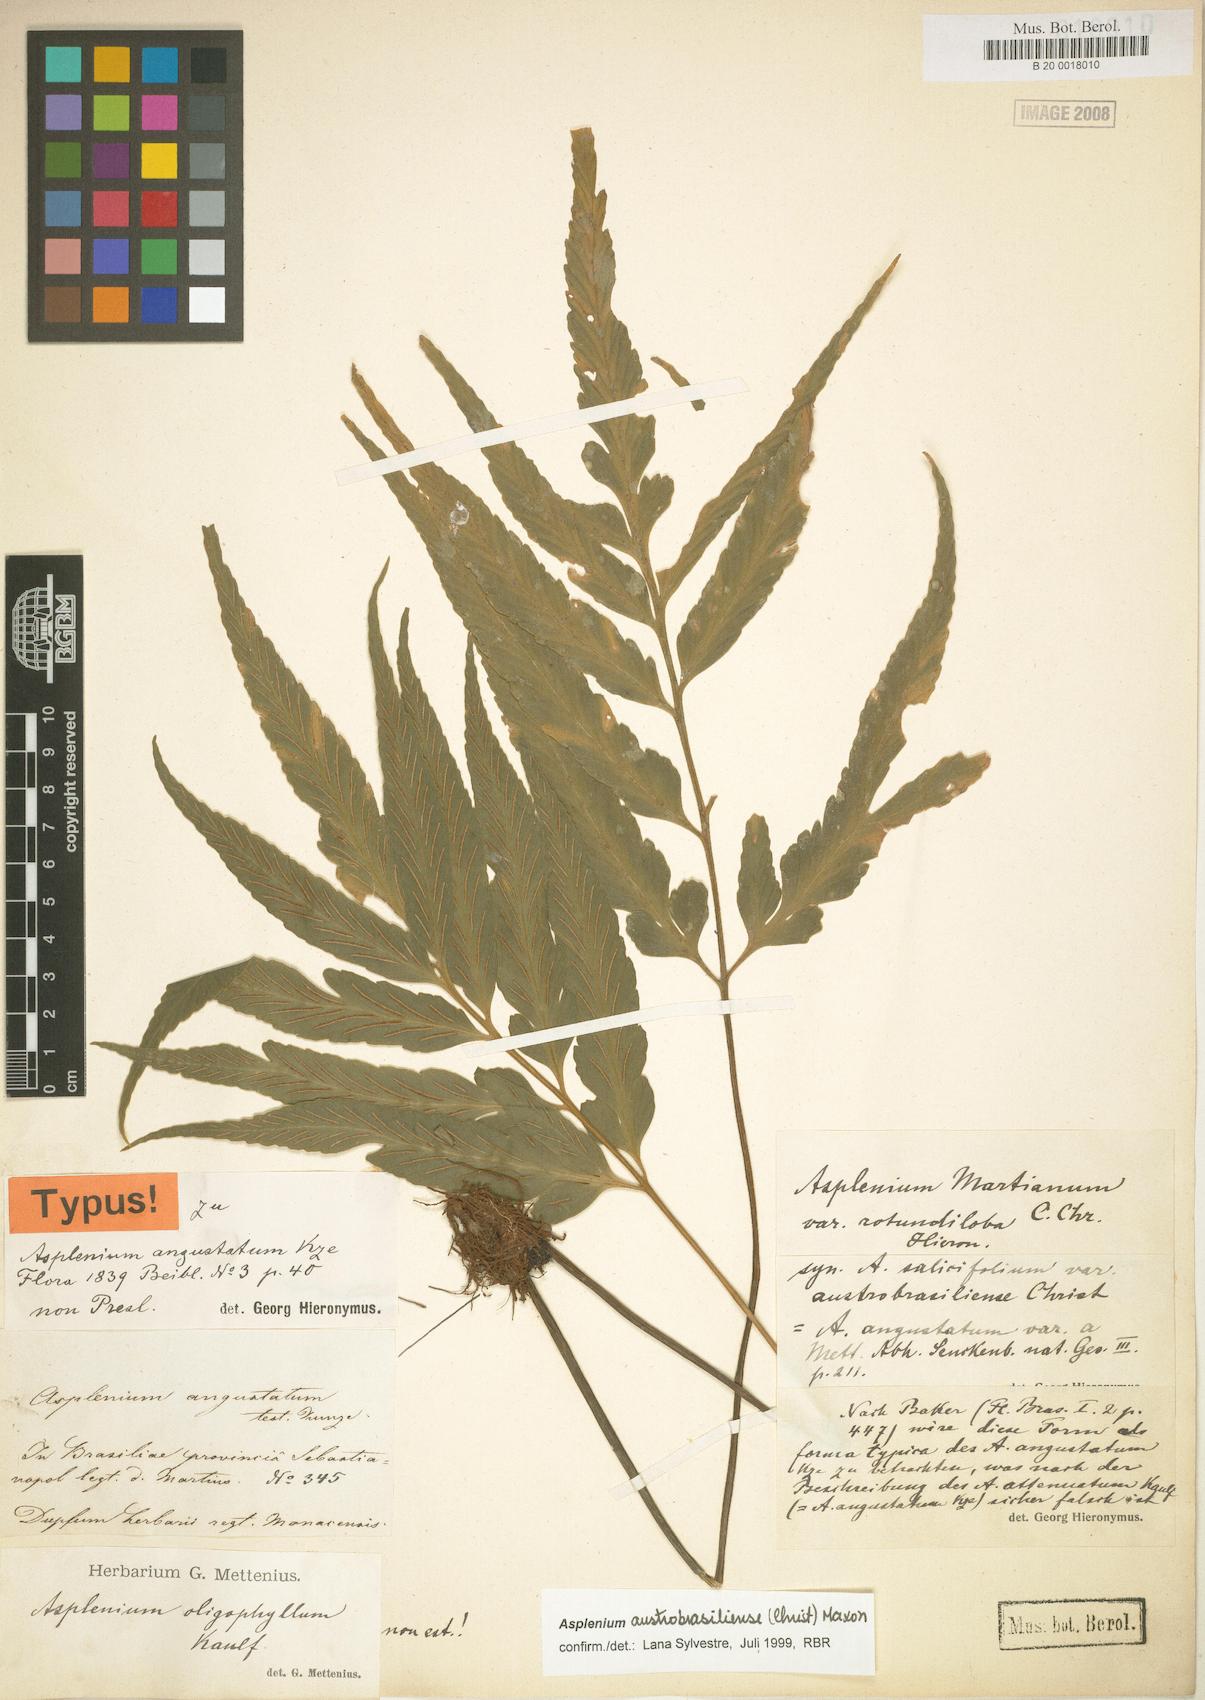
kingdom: Plantae
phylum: Tracheophyta
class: Polypodiopsida
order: Polypodiales
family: Aspleniaceae
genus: Asplenium
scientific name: Asplenium austrobrasiliense
